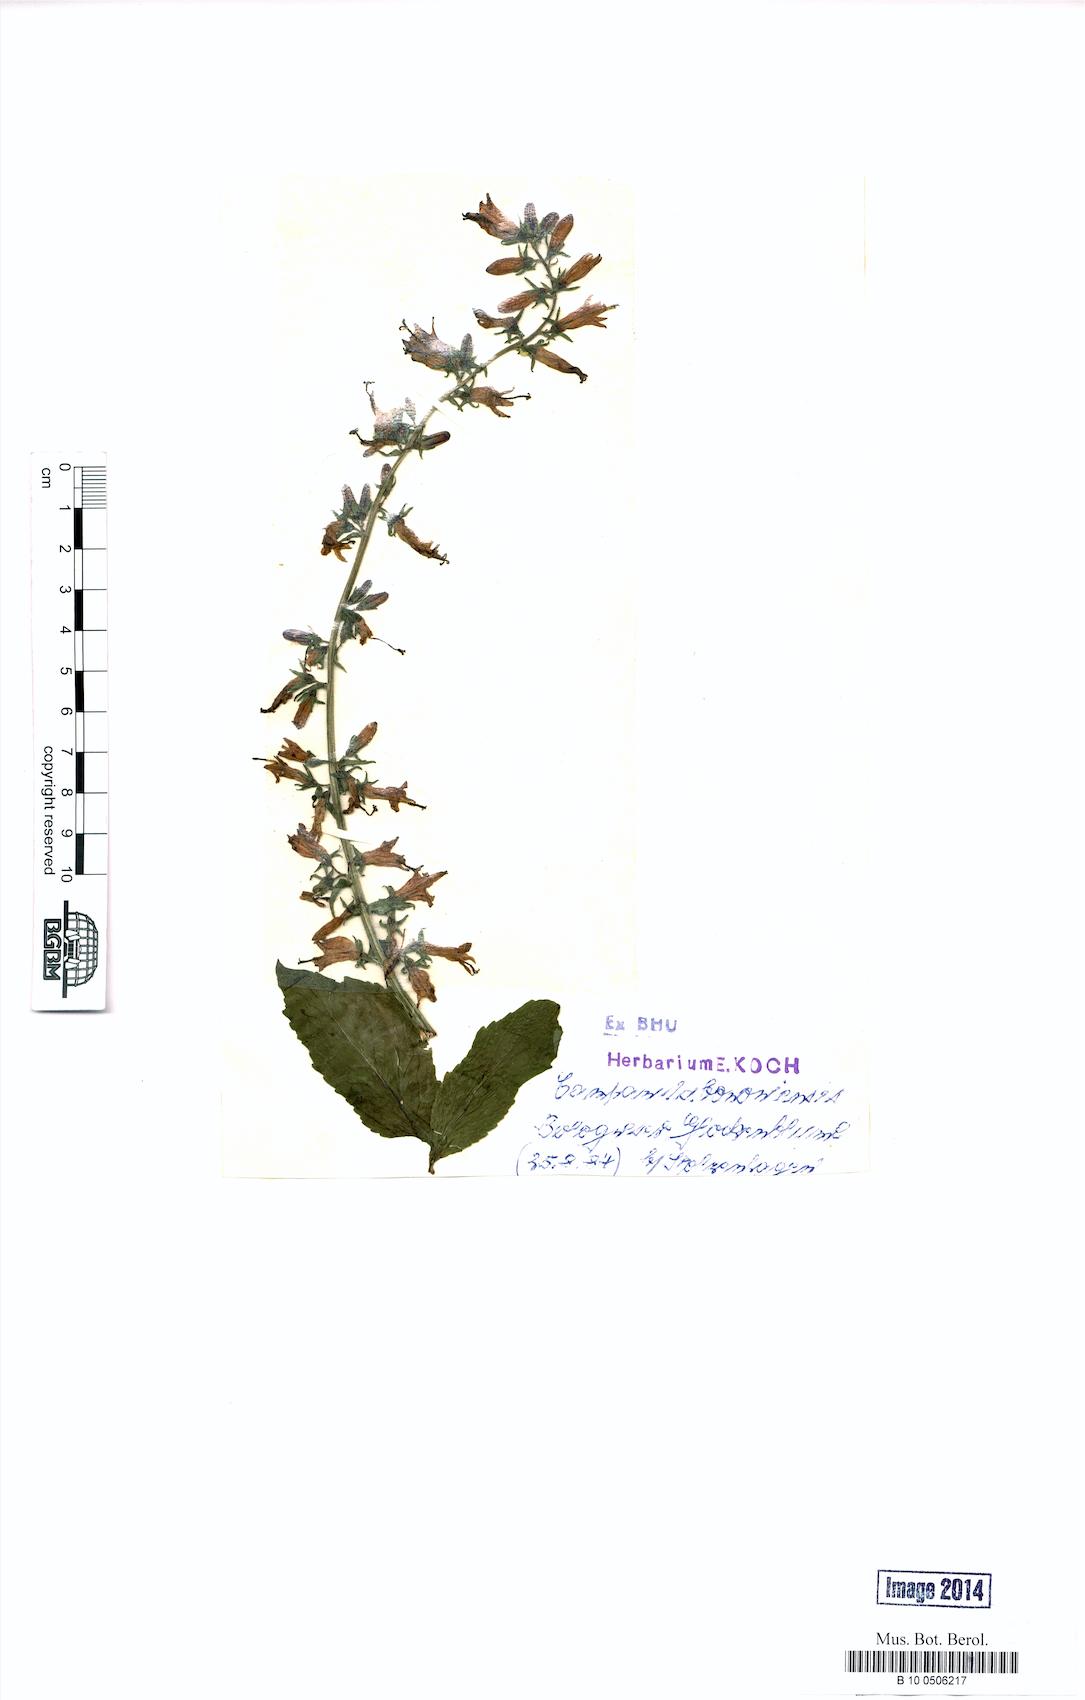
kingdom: Plantae
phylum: Tracheophyta
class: Magnoliopsida
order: Asterales
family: Campanulaceae
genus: Campanula
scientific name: Campanula bononiensis
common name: Pale bellflower
